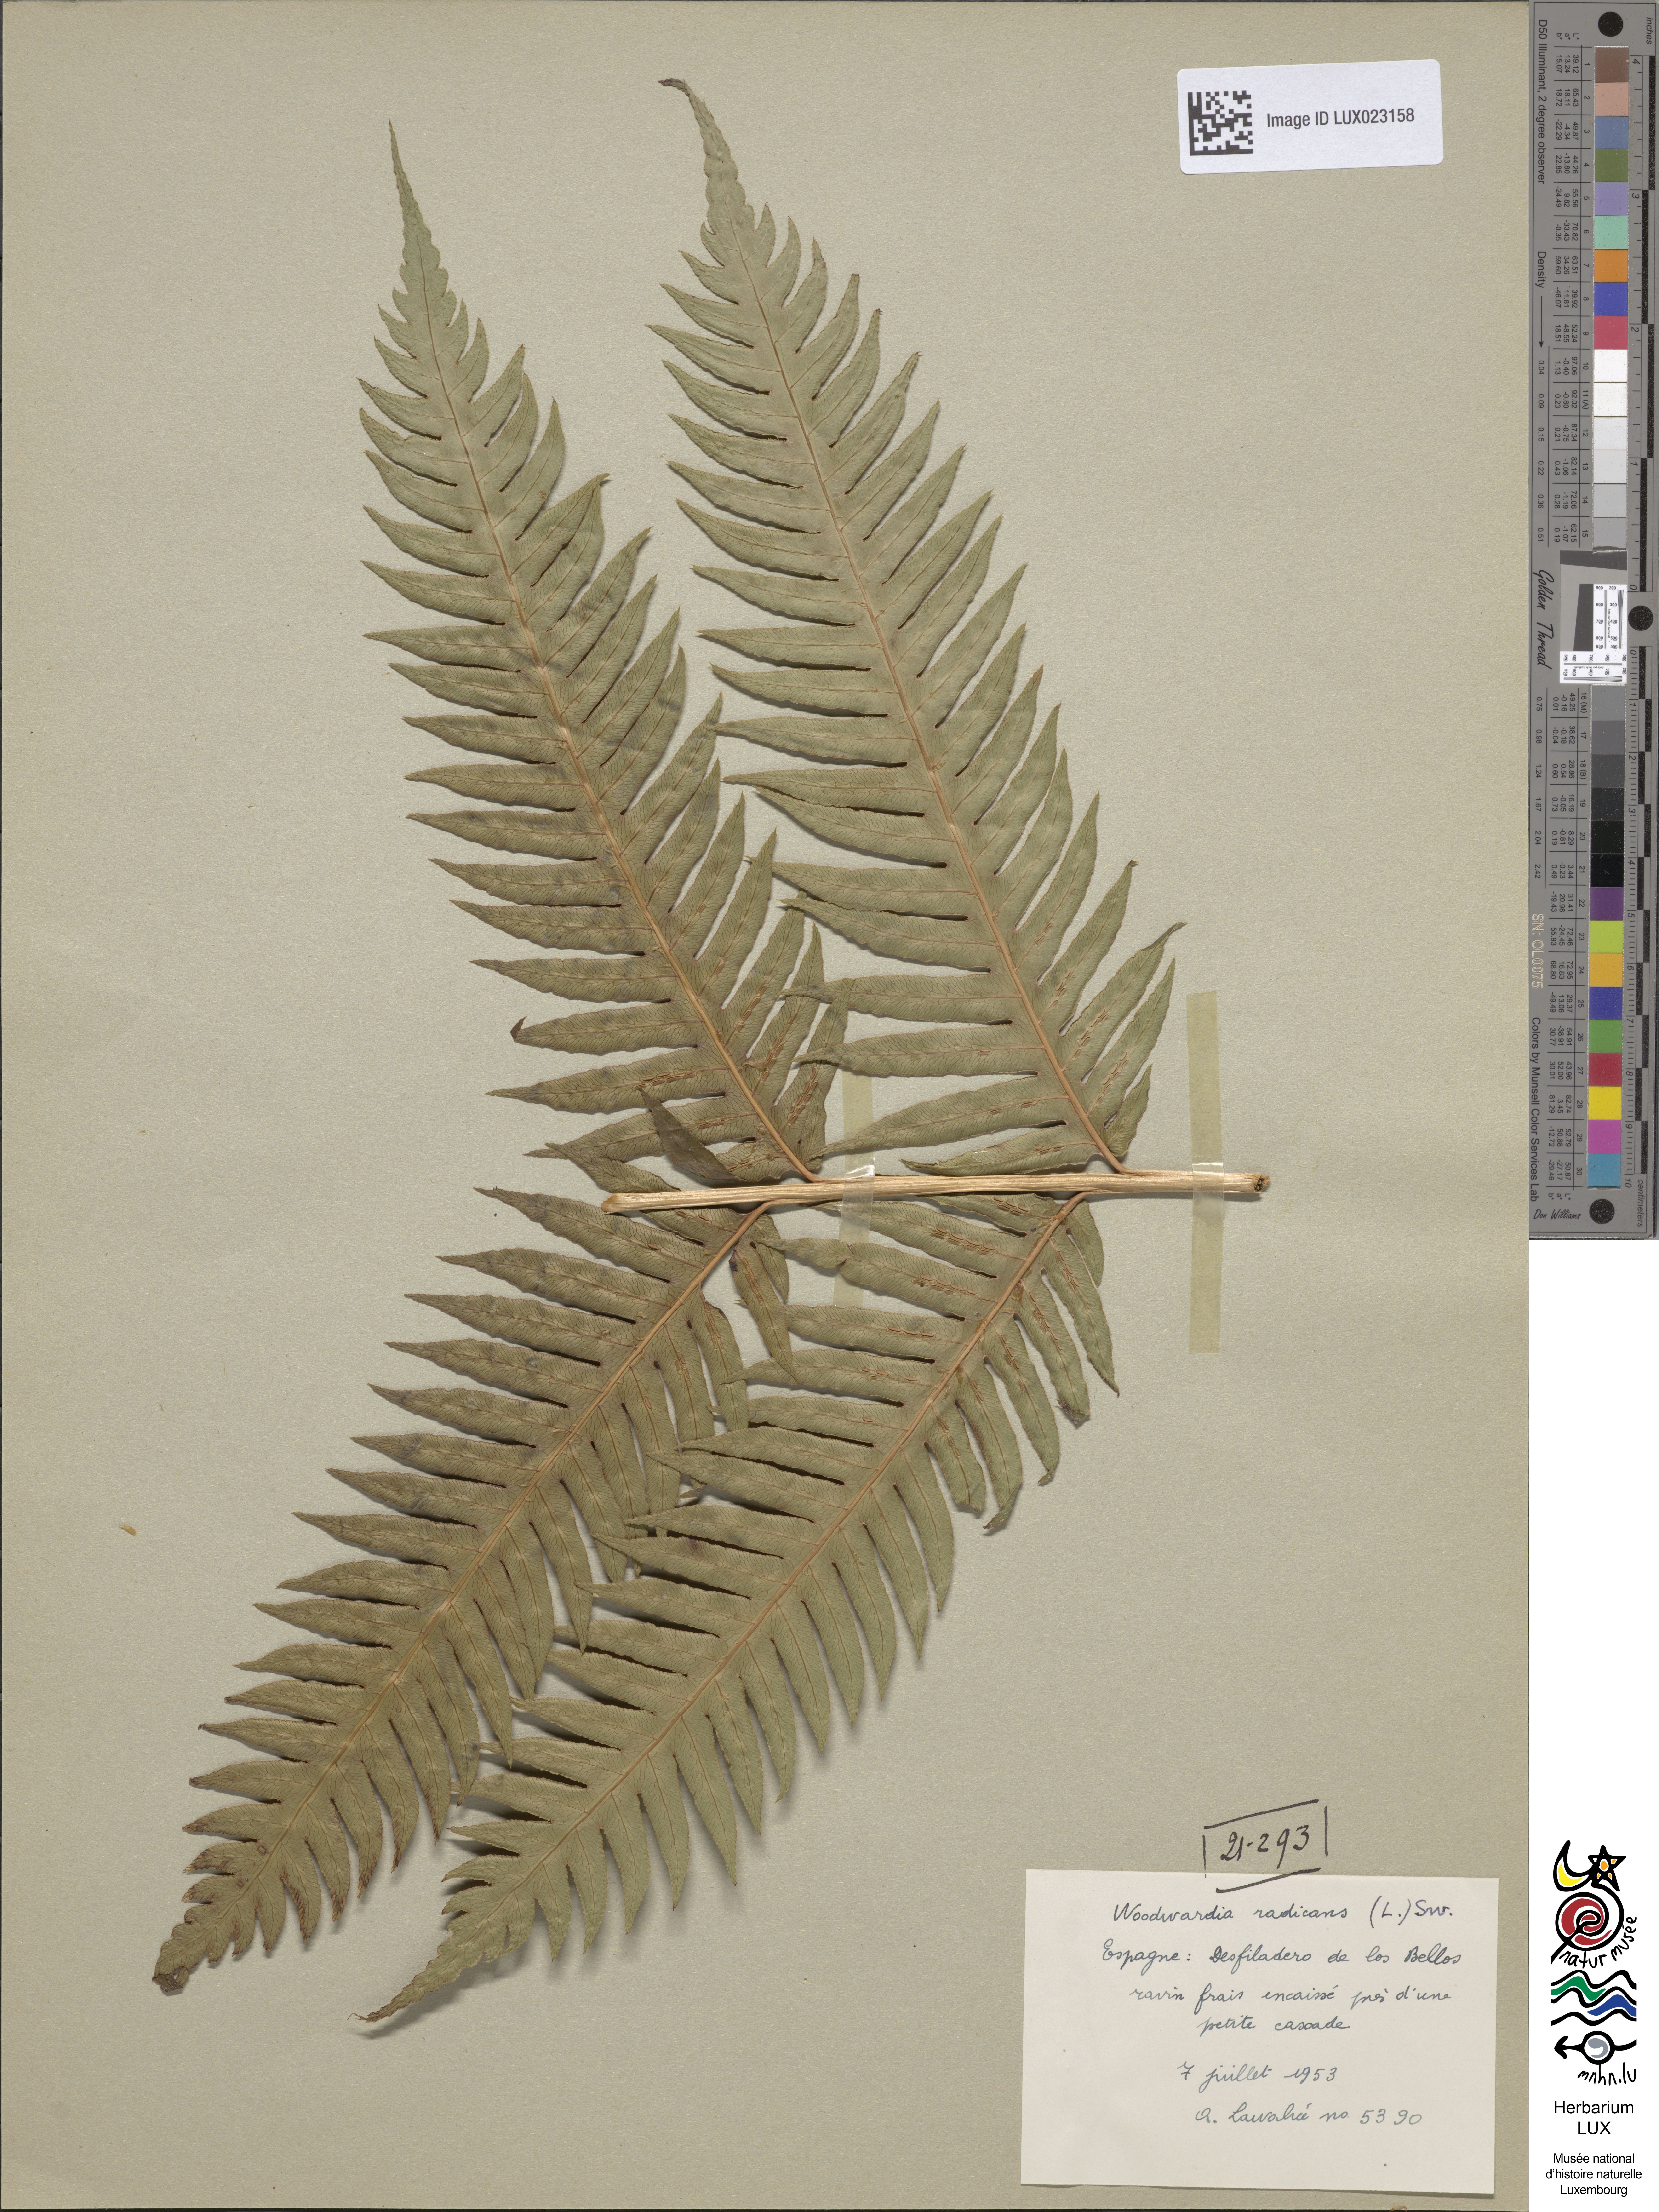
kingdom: Plantae
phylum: Tracheophyta
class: Polypodiopsida
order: Polypodiales
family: Blechnaceae
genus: Woodwardia
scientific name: Woodwardia radicans
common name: Rooting chainfern
